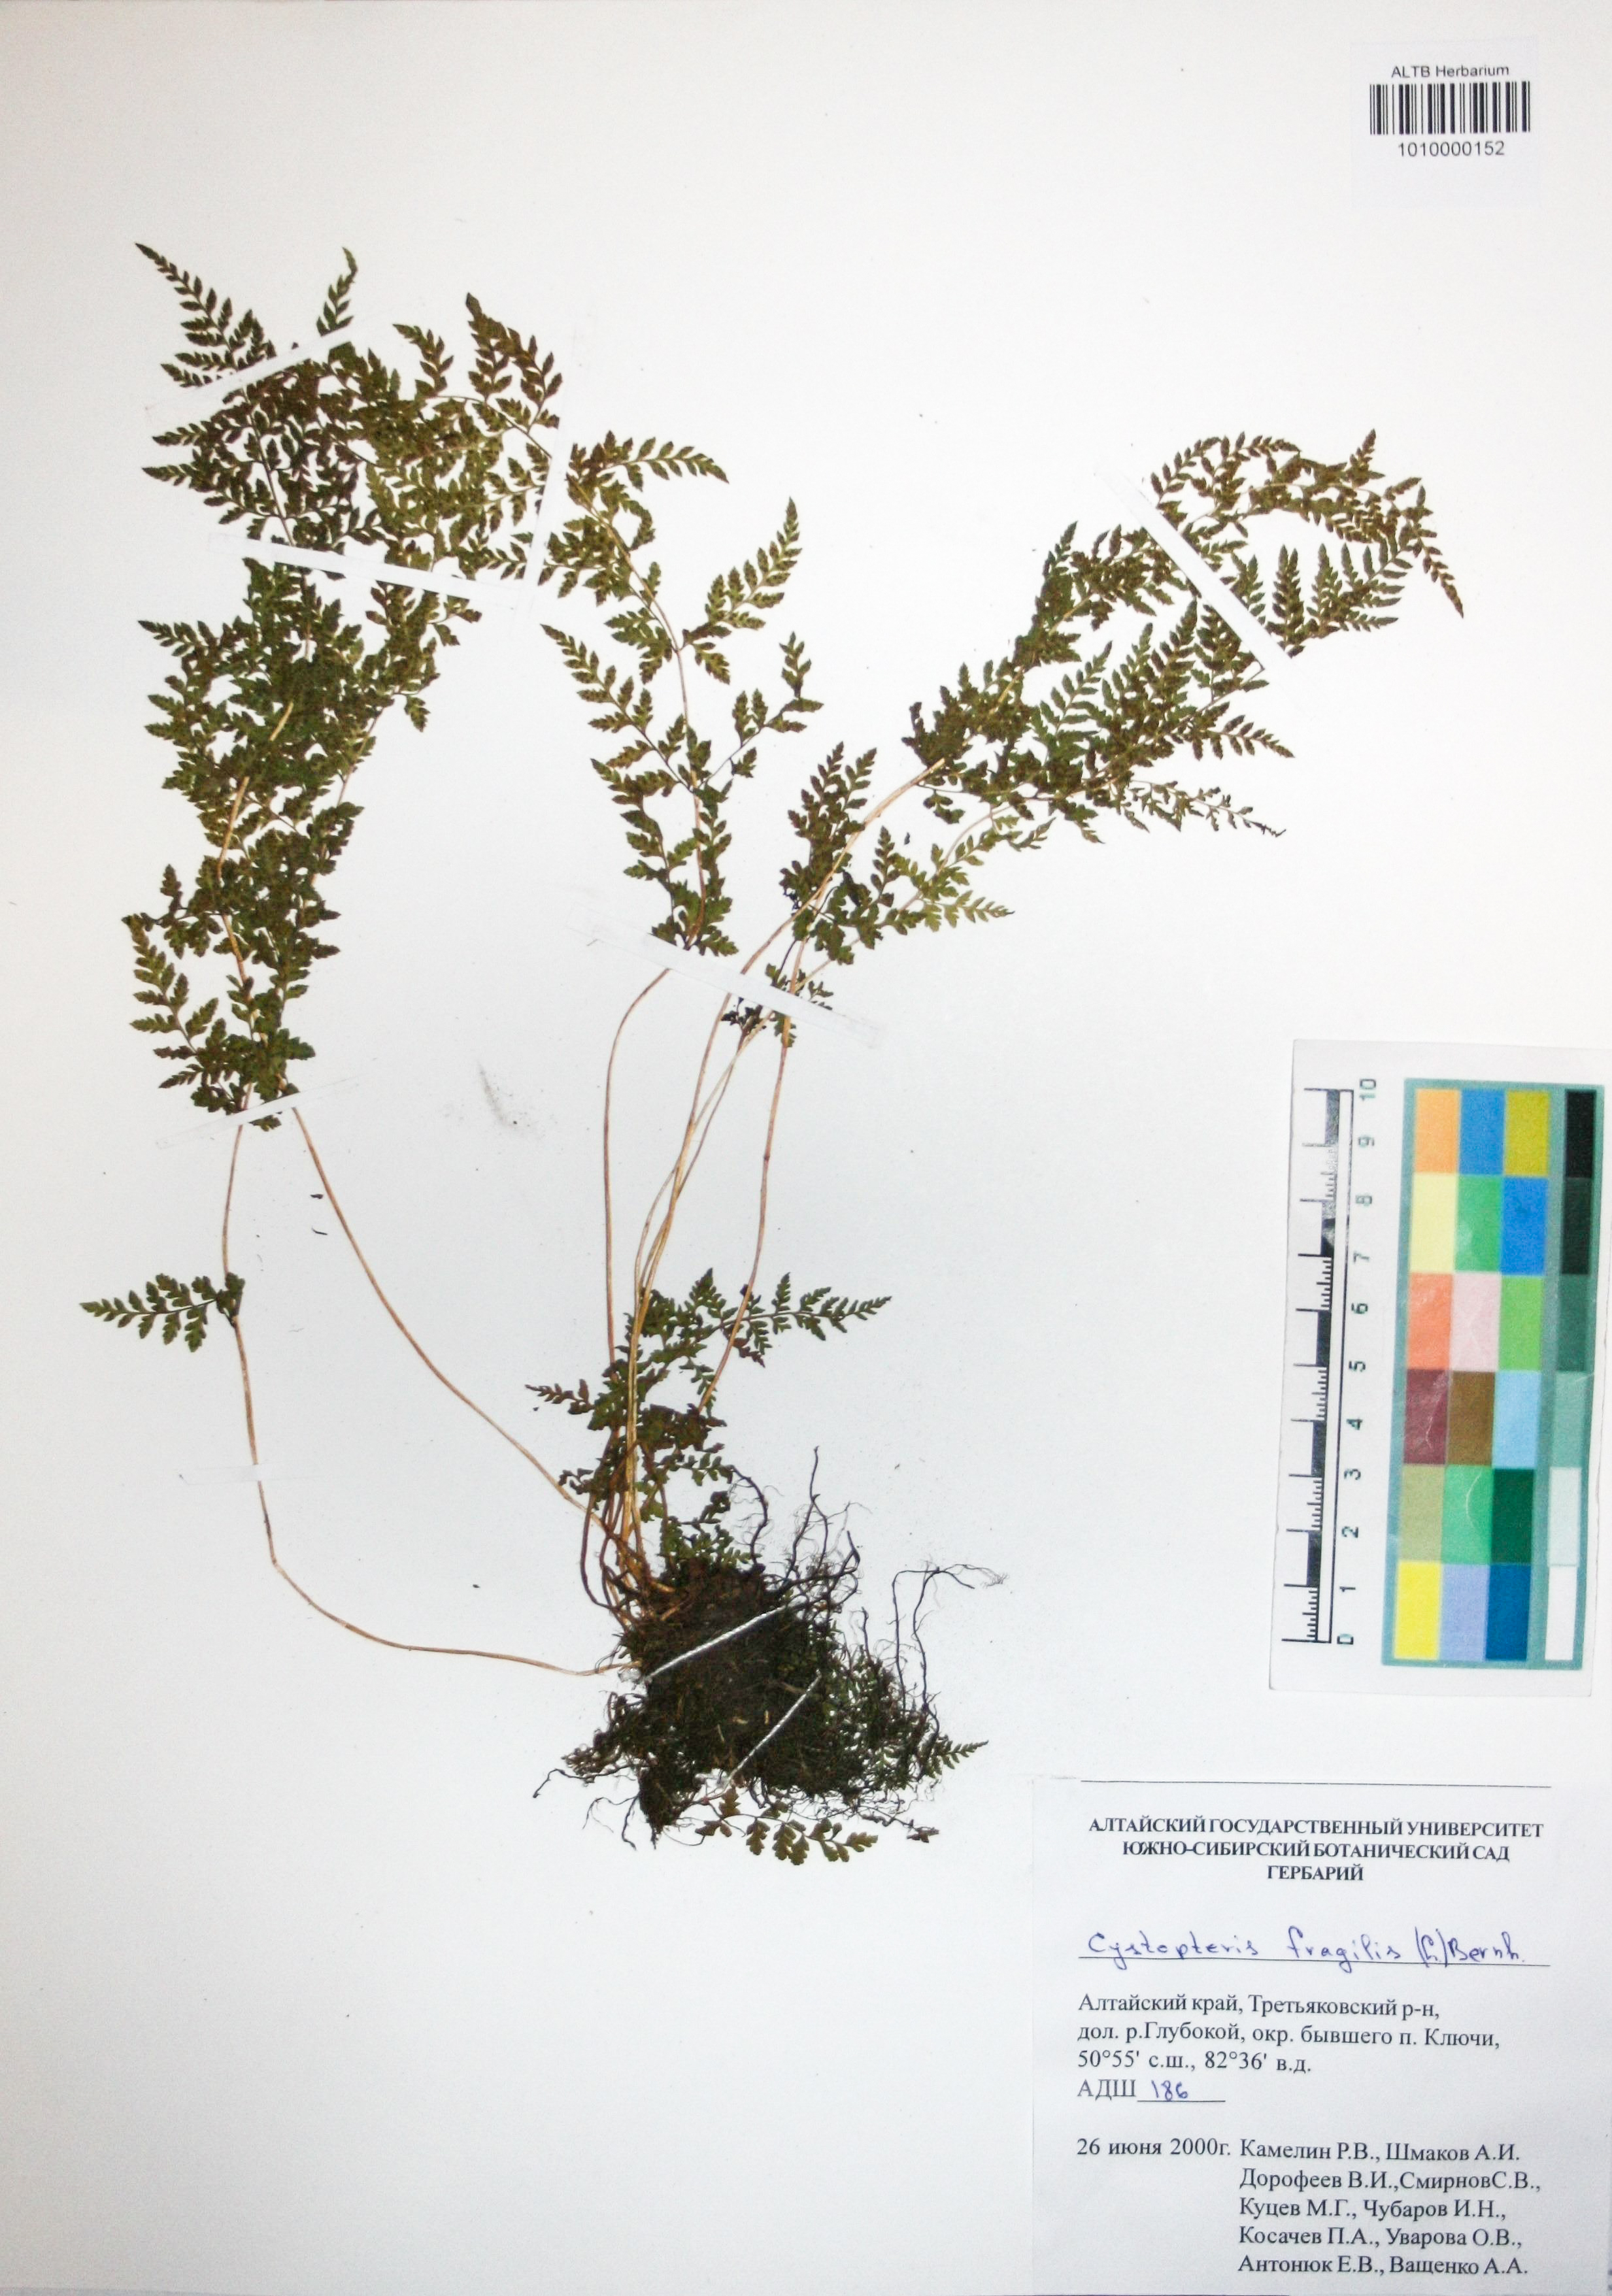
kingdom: Plantae
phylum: Tracheophyta
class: Polypodiopsida
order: Polypodiales
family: Cystopteridaceae
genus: Cystopteris
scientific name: Cystopteris fragilis
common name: Brittle bladder fern
